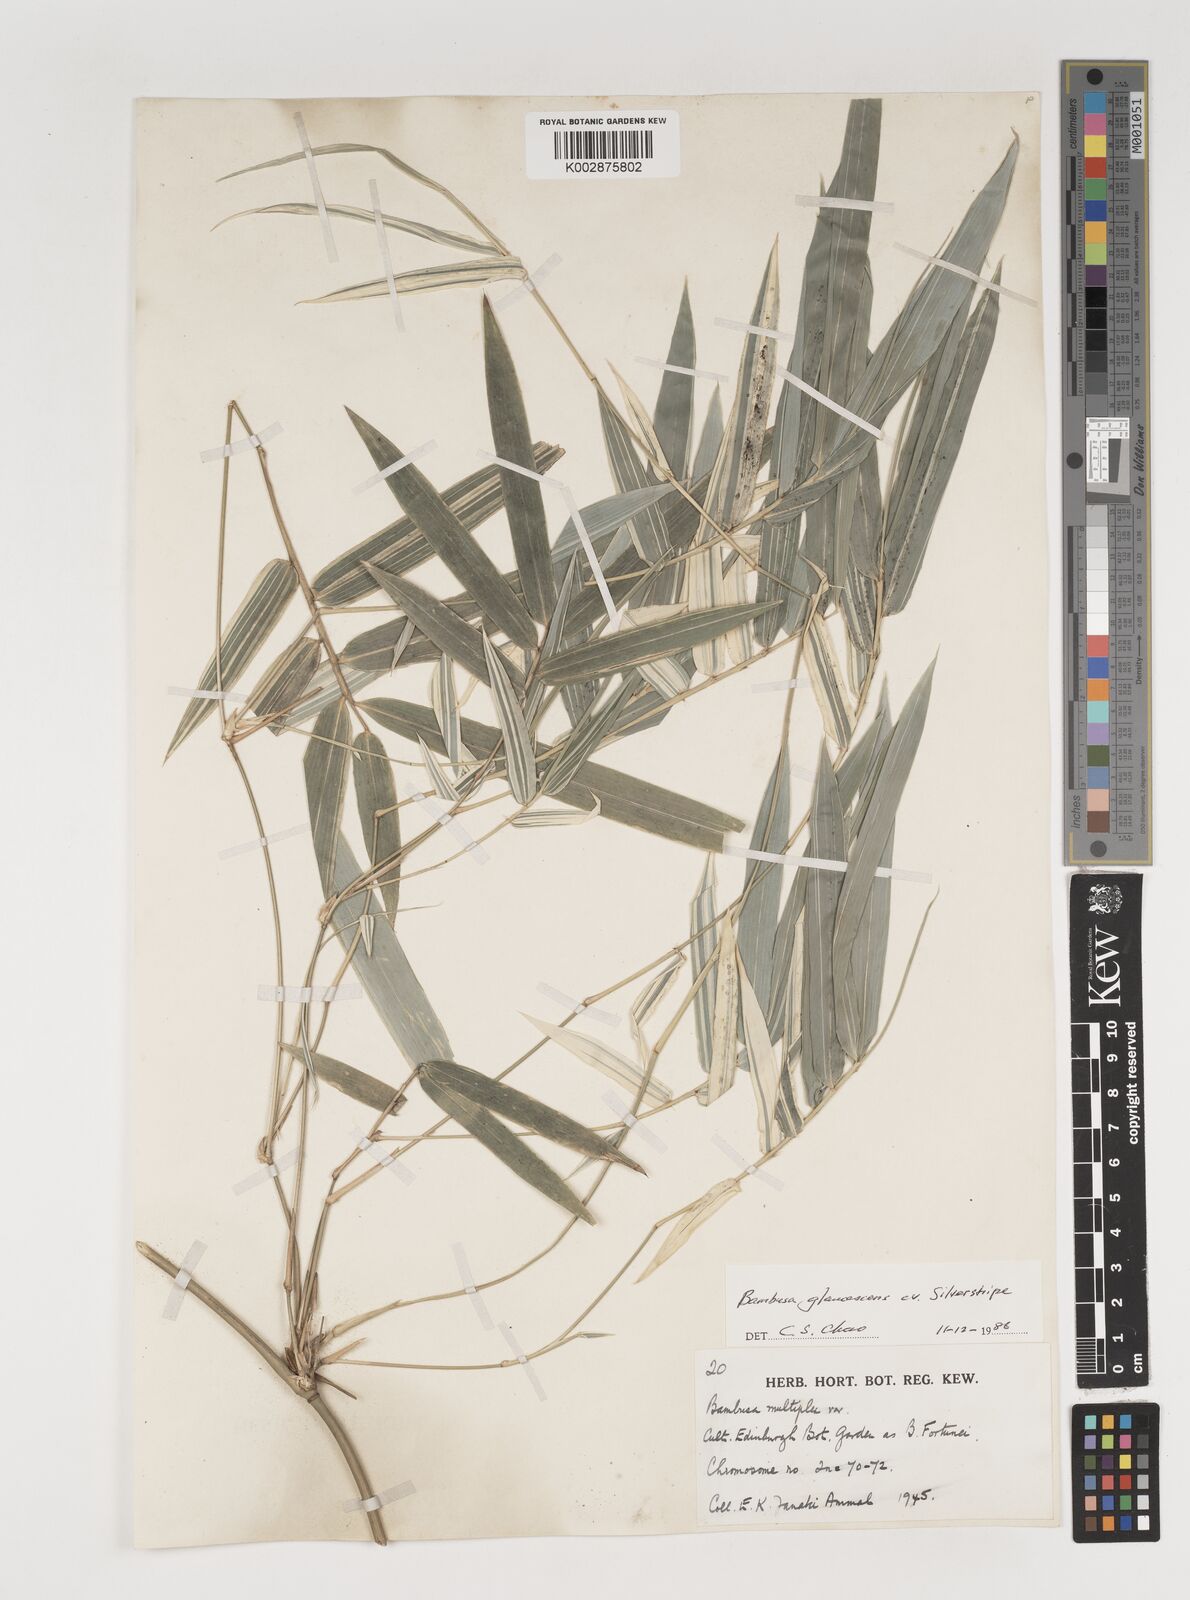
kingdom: Plantae
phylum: Tracheophyta
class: Liliopsida
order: Poales
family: Poaceae
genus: Bambusa
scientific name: Bambusa multiplex
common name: Hedge bamboo
